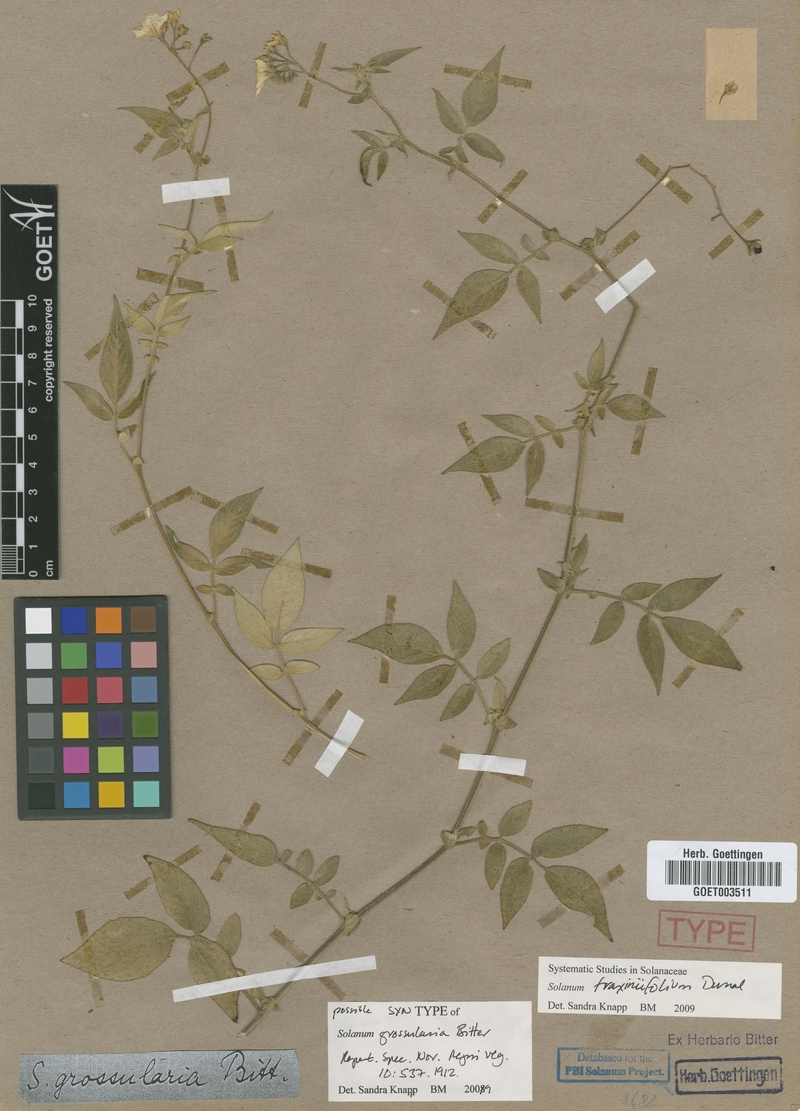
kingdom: Plantae
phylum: Tracheophyta
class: Magnoliopsida
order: Solanales
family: Solanaceae
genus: Solanum
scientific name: Solanum fraxinifolium
